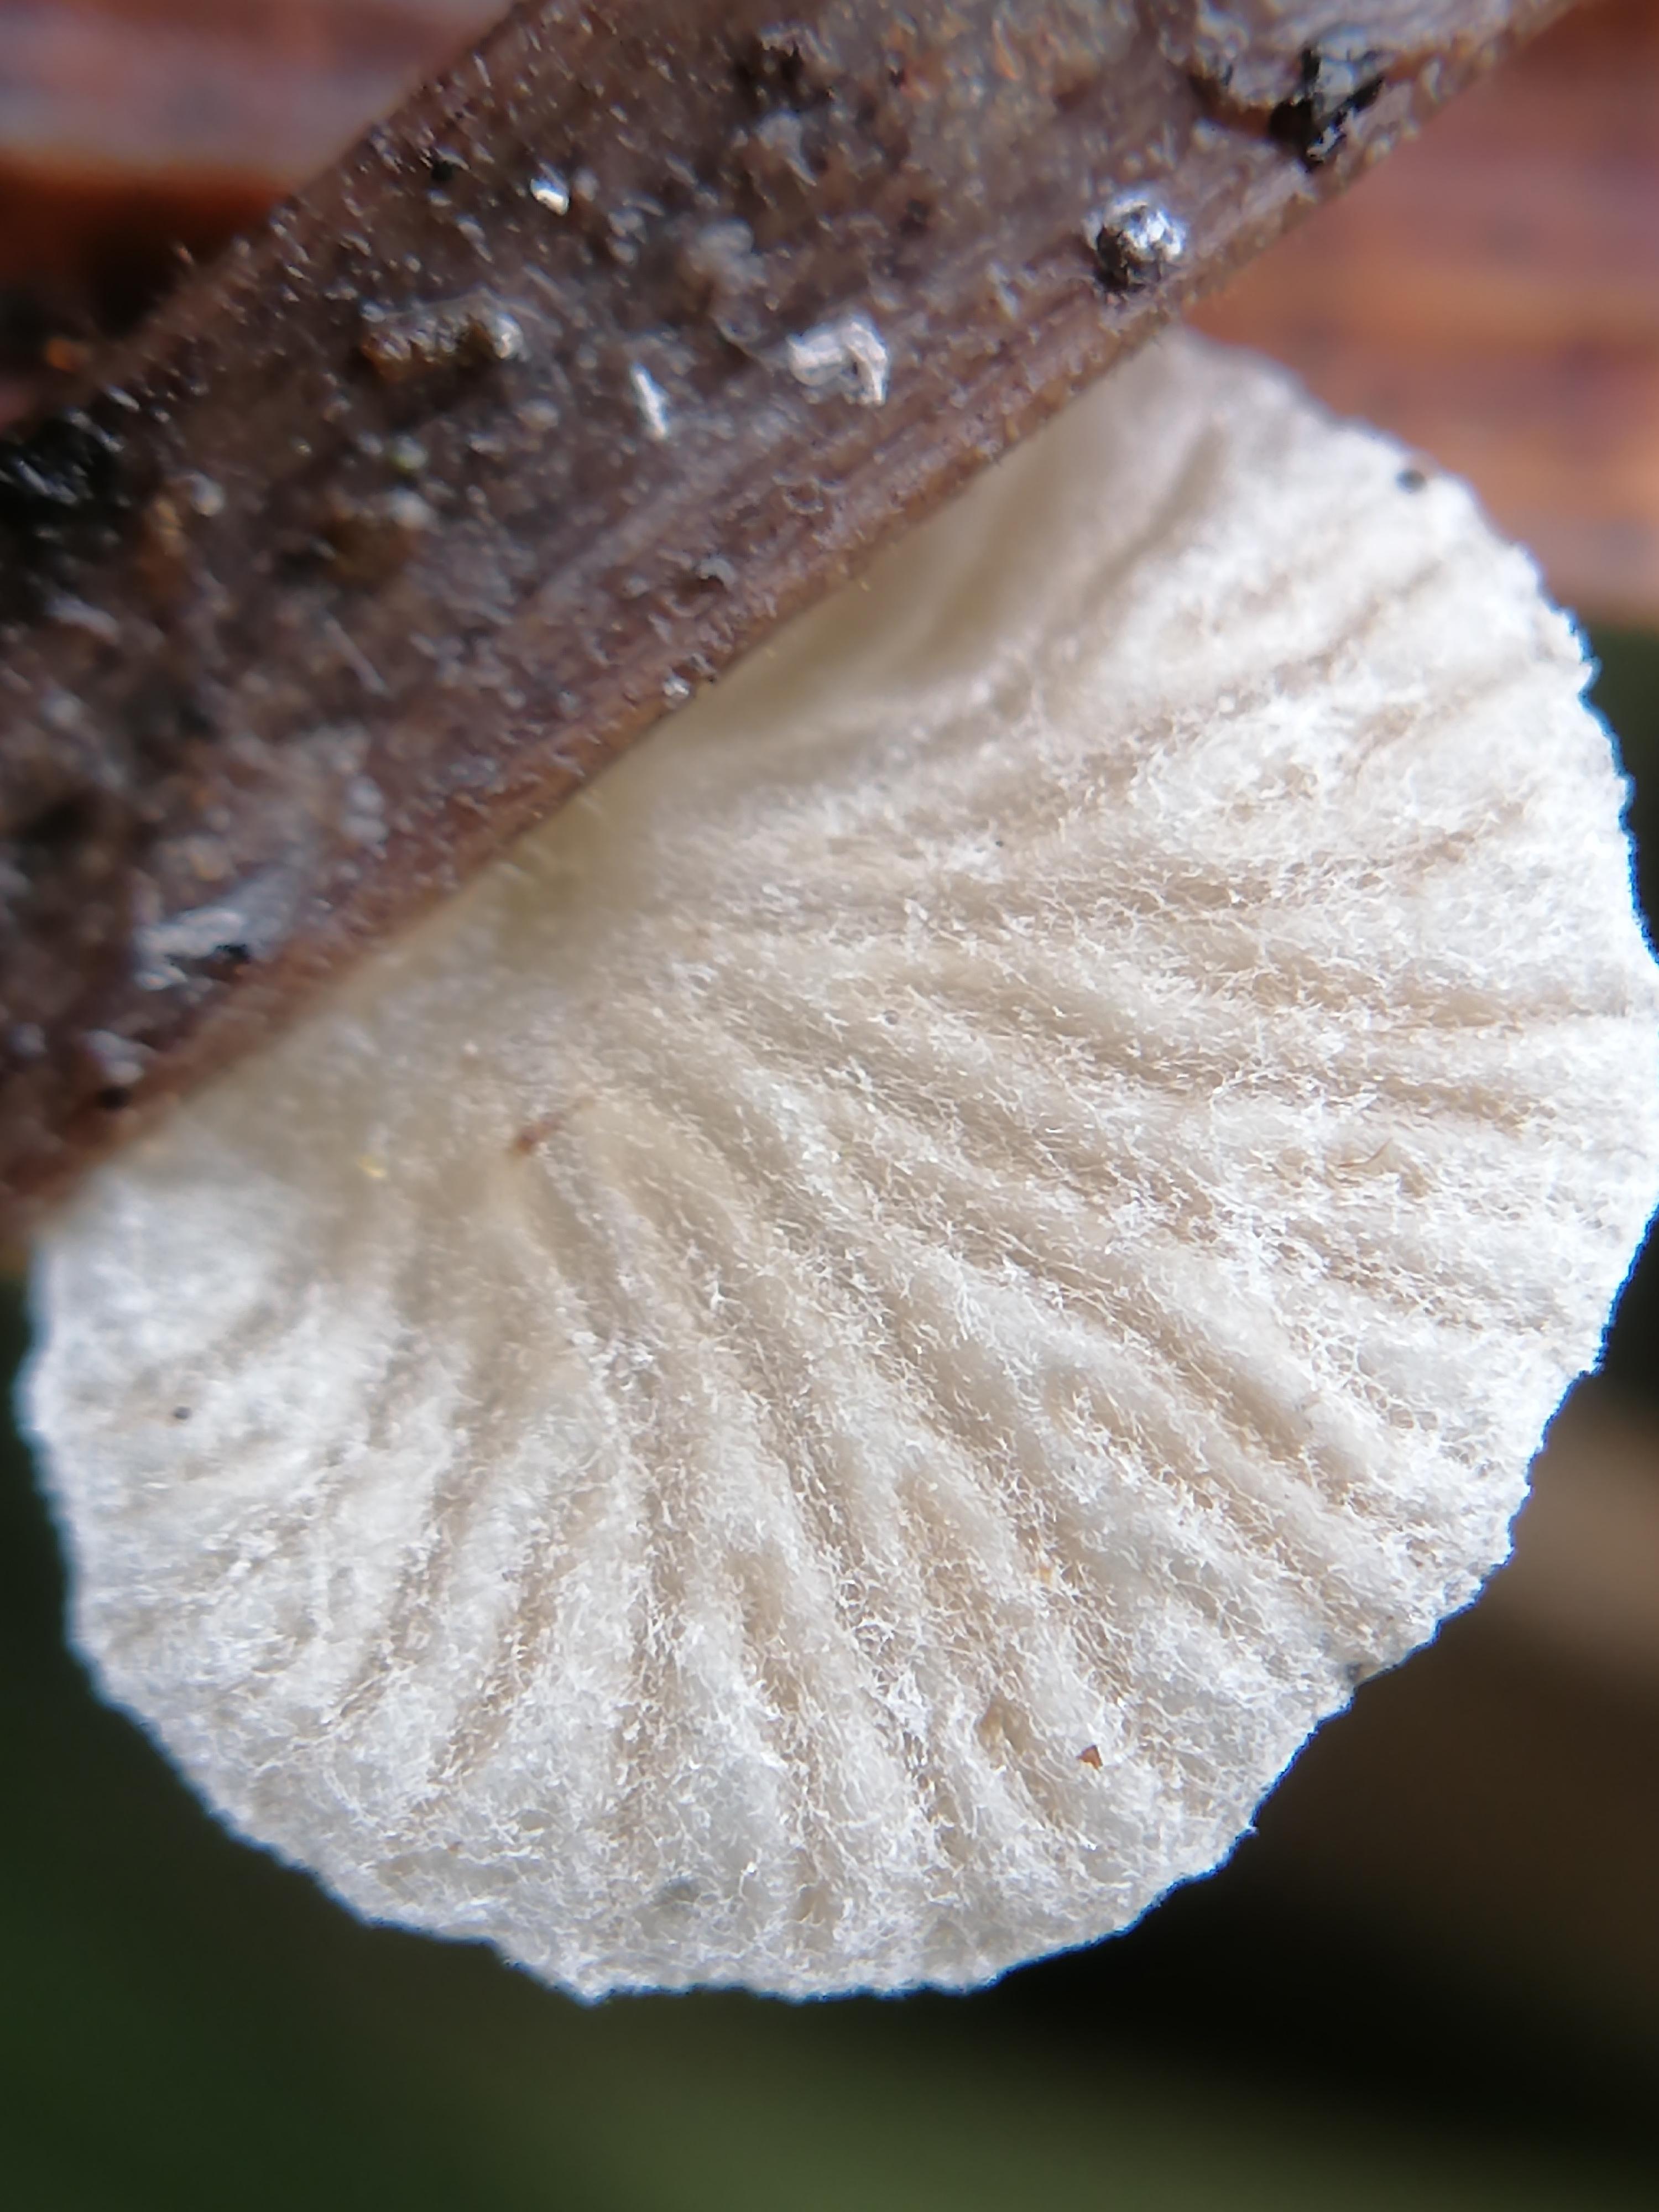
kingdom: Fungi
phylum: Basidiomycota
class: Agaricomycetes
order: Agaricales
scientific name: Agaricales
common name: champignonordenen
